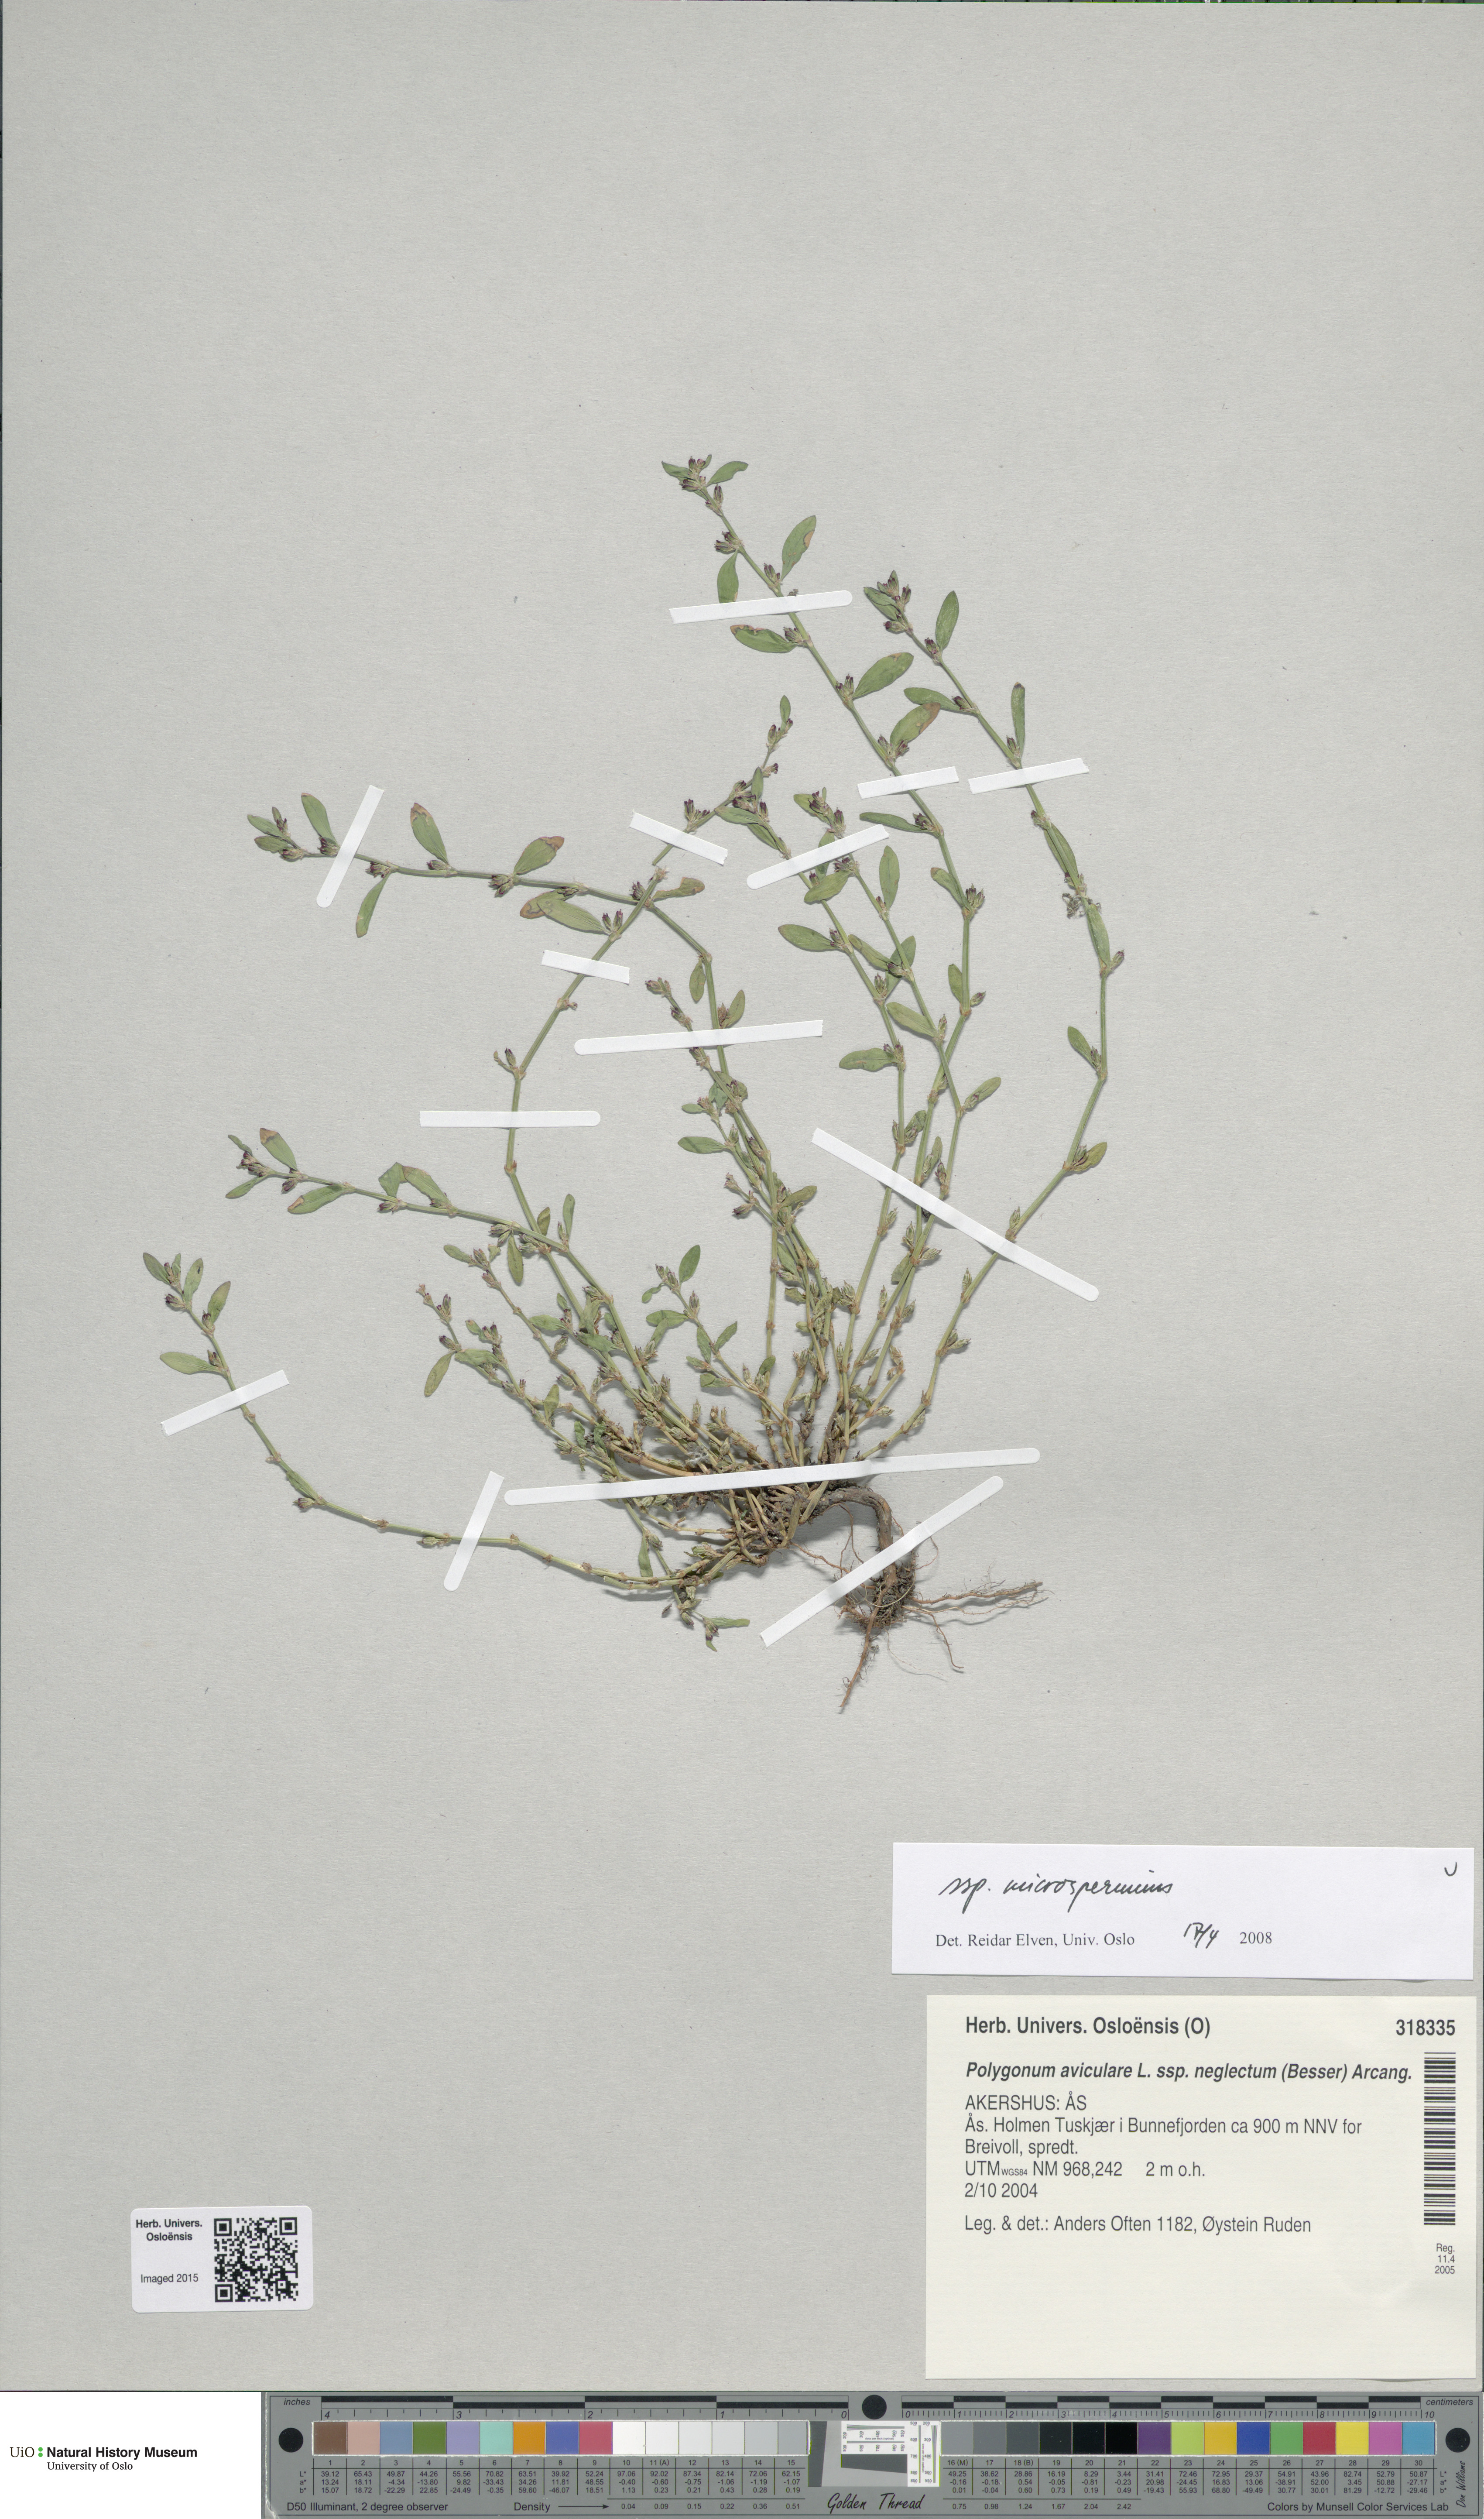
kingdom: Plantae
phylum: Tracheophyta
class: Magnoliopsida
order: Caryophyllales
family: Polygonaceae
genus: Polygonum
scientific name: Polygonum arenastrum
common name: Equal-leaved knotgrass
